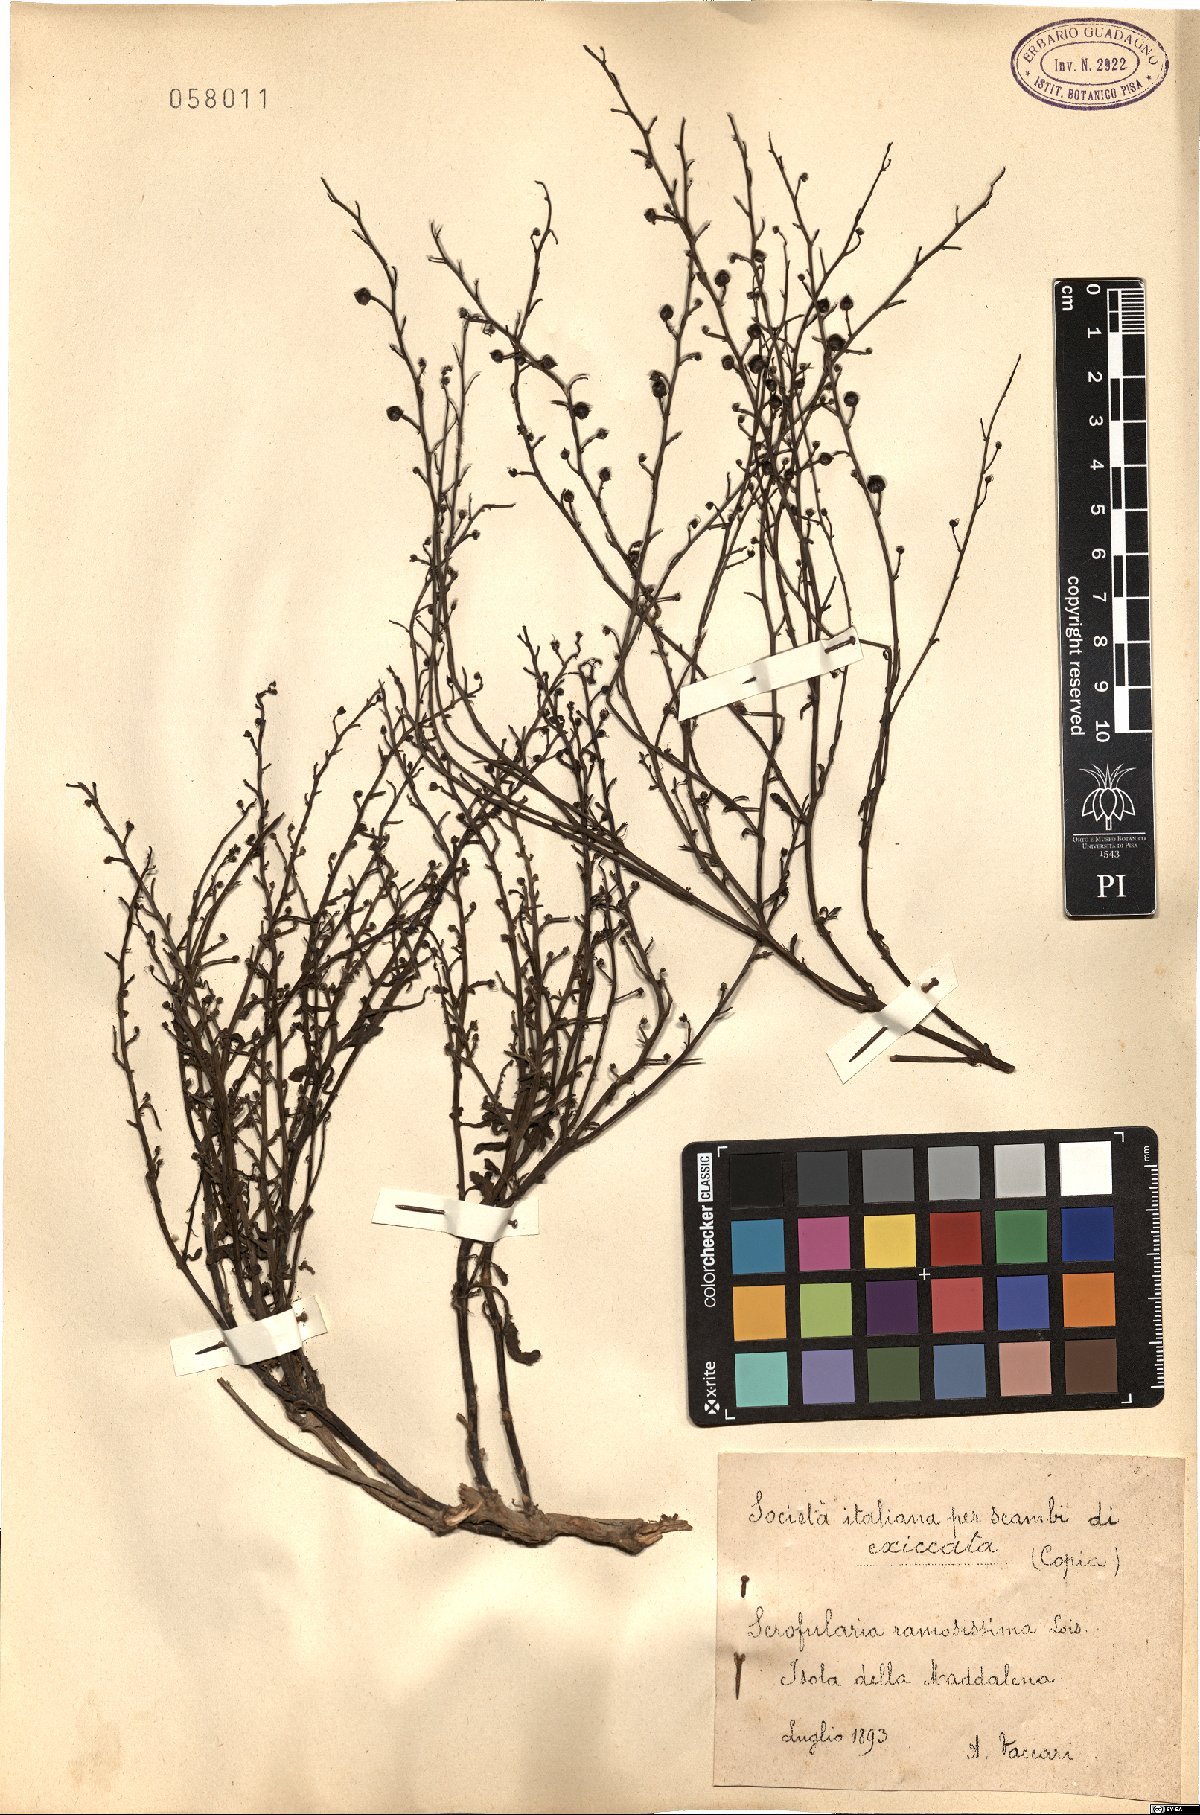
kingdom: Plantae
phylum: Tracheophyta
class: Magnoliopsida
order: Lamiales
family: Scrophulariaceae
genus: Scrophularia
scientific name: Scrophularia canina
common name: French figwort
